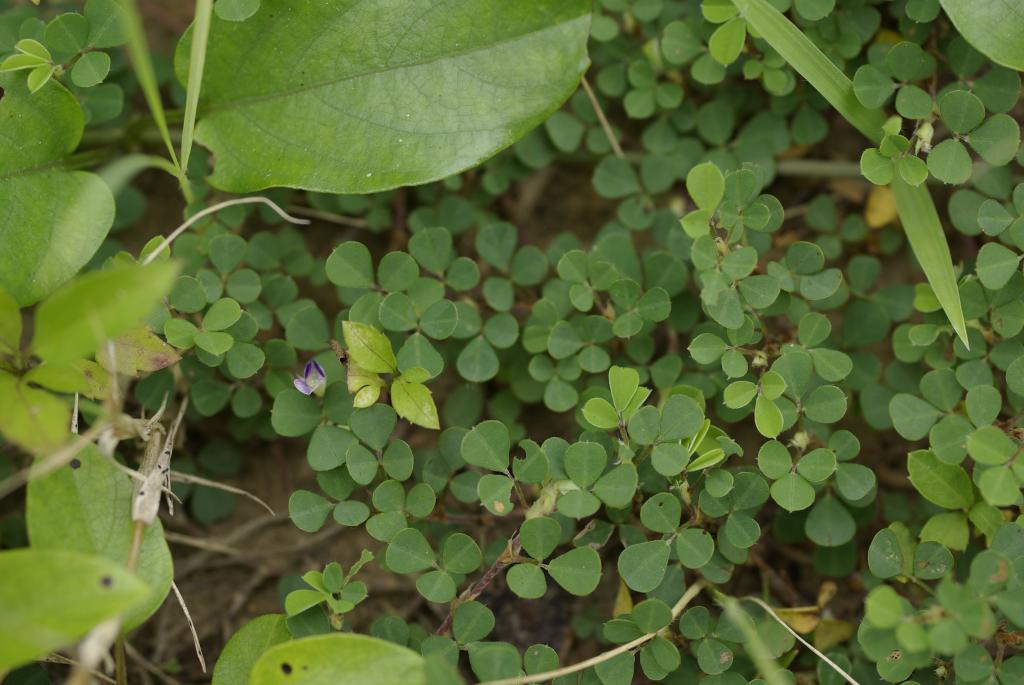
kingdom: Plantae
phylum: Tracheophyta
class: Magnoliopsida
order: Fabales
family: Fabaceae
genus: Grona
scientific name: Grona triflora
